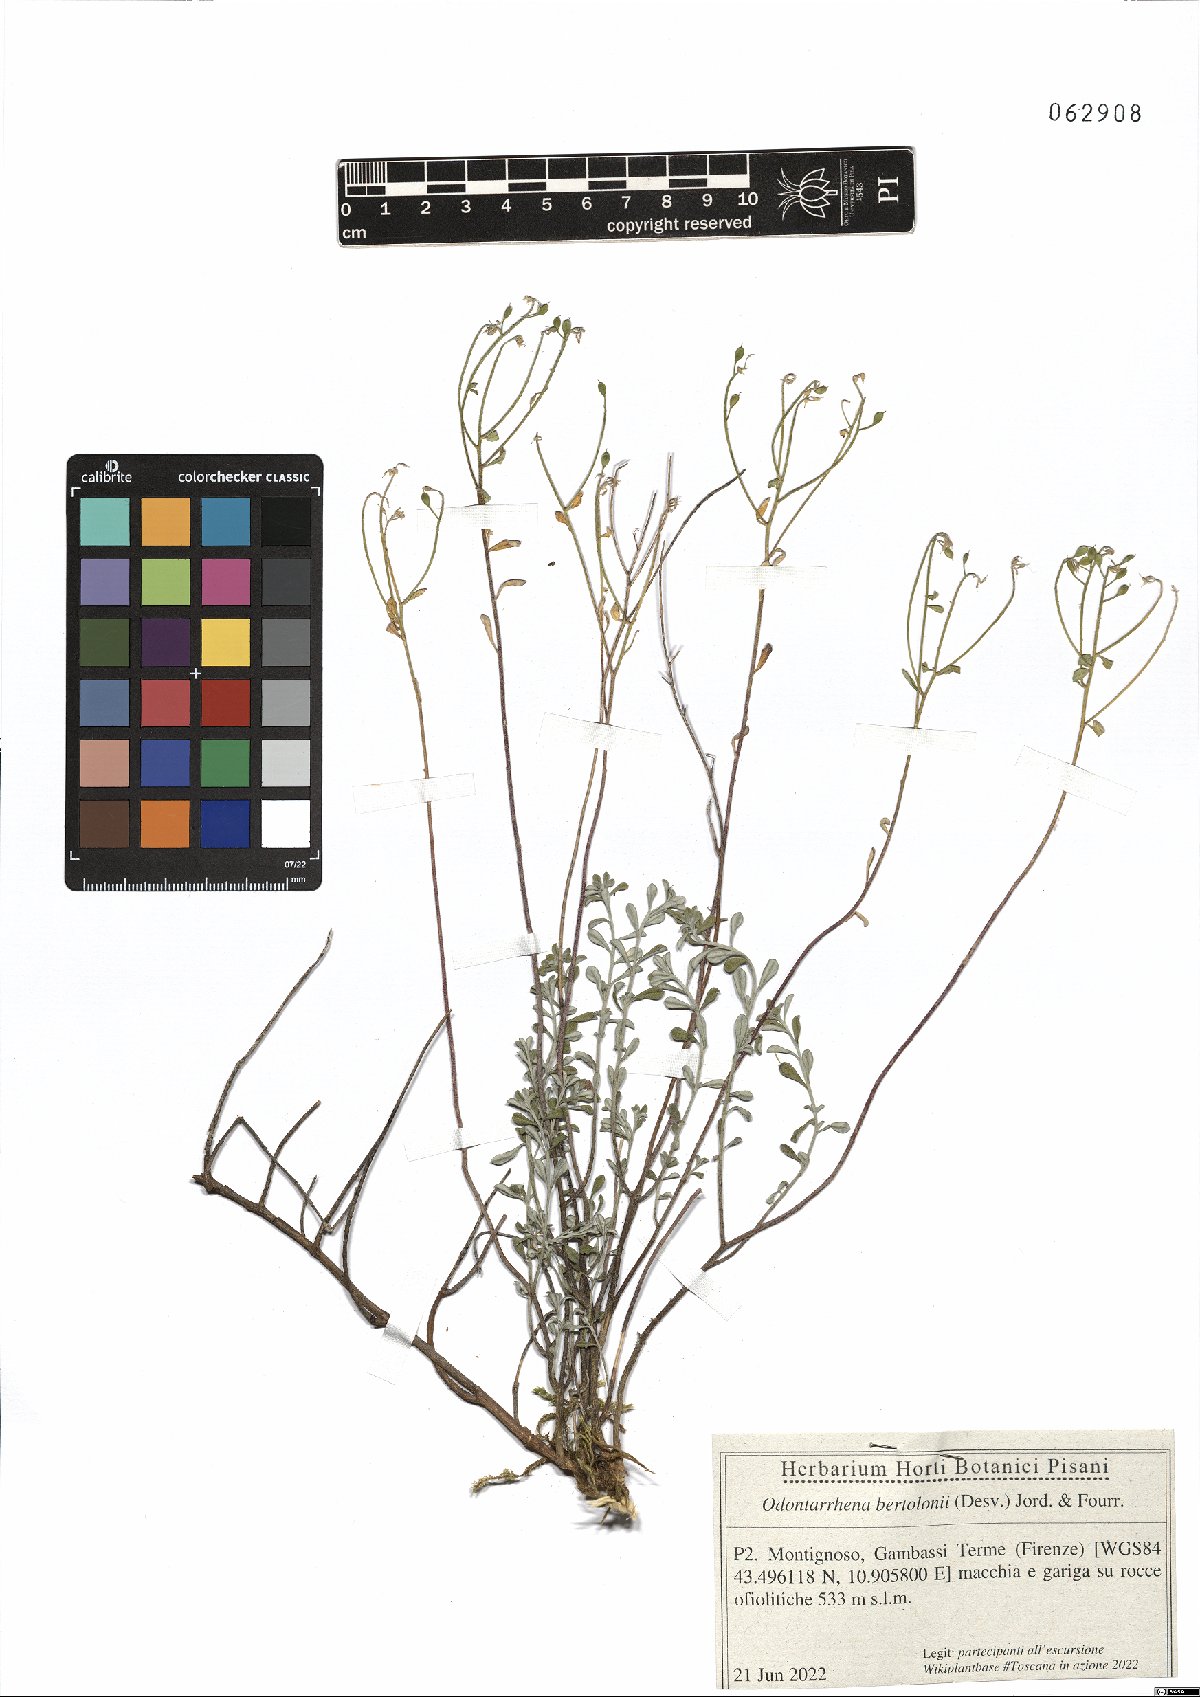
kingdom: Plantae
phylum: Tracheophyta
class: Magnoliopsida
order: Brassicales
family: Brassicaceae
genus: Odontarrhena
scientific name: Odontarrhena bertolonii
